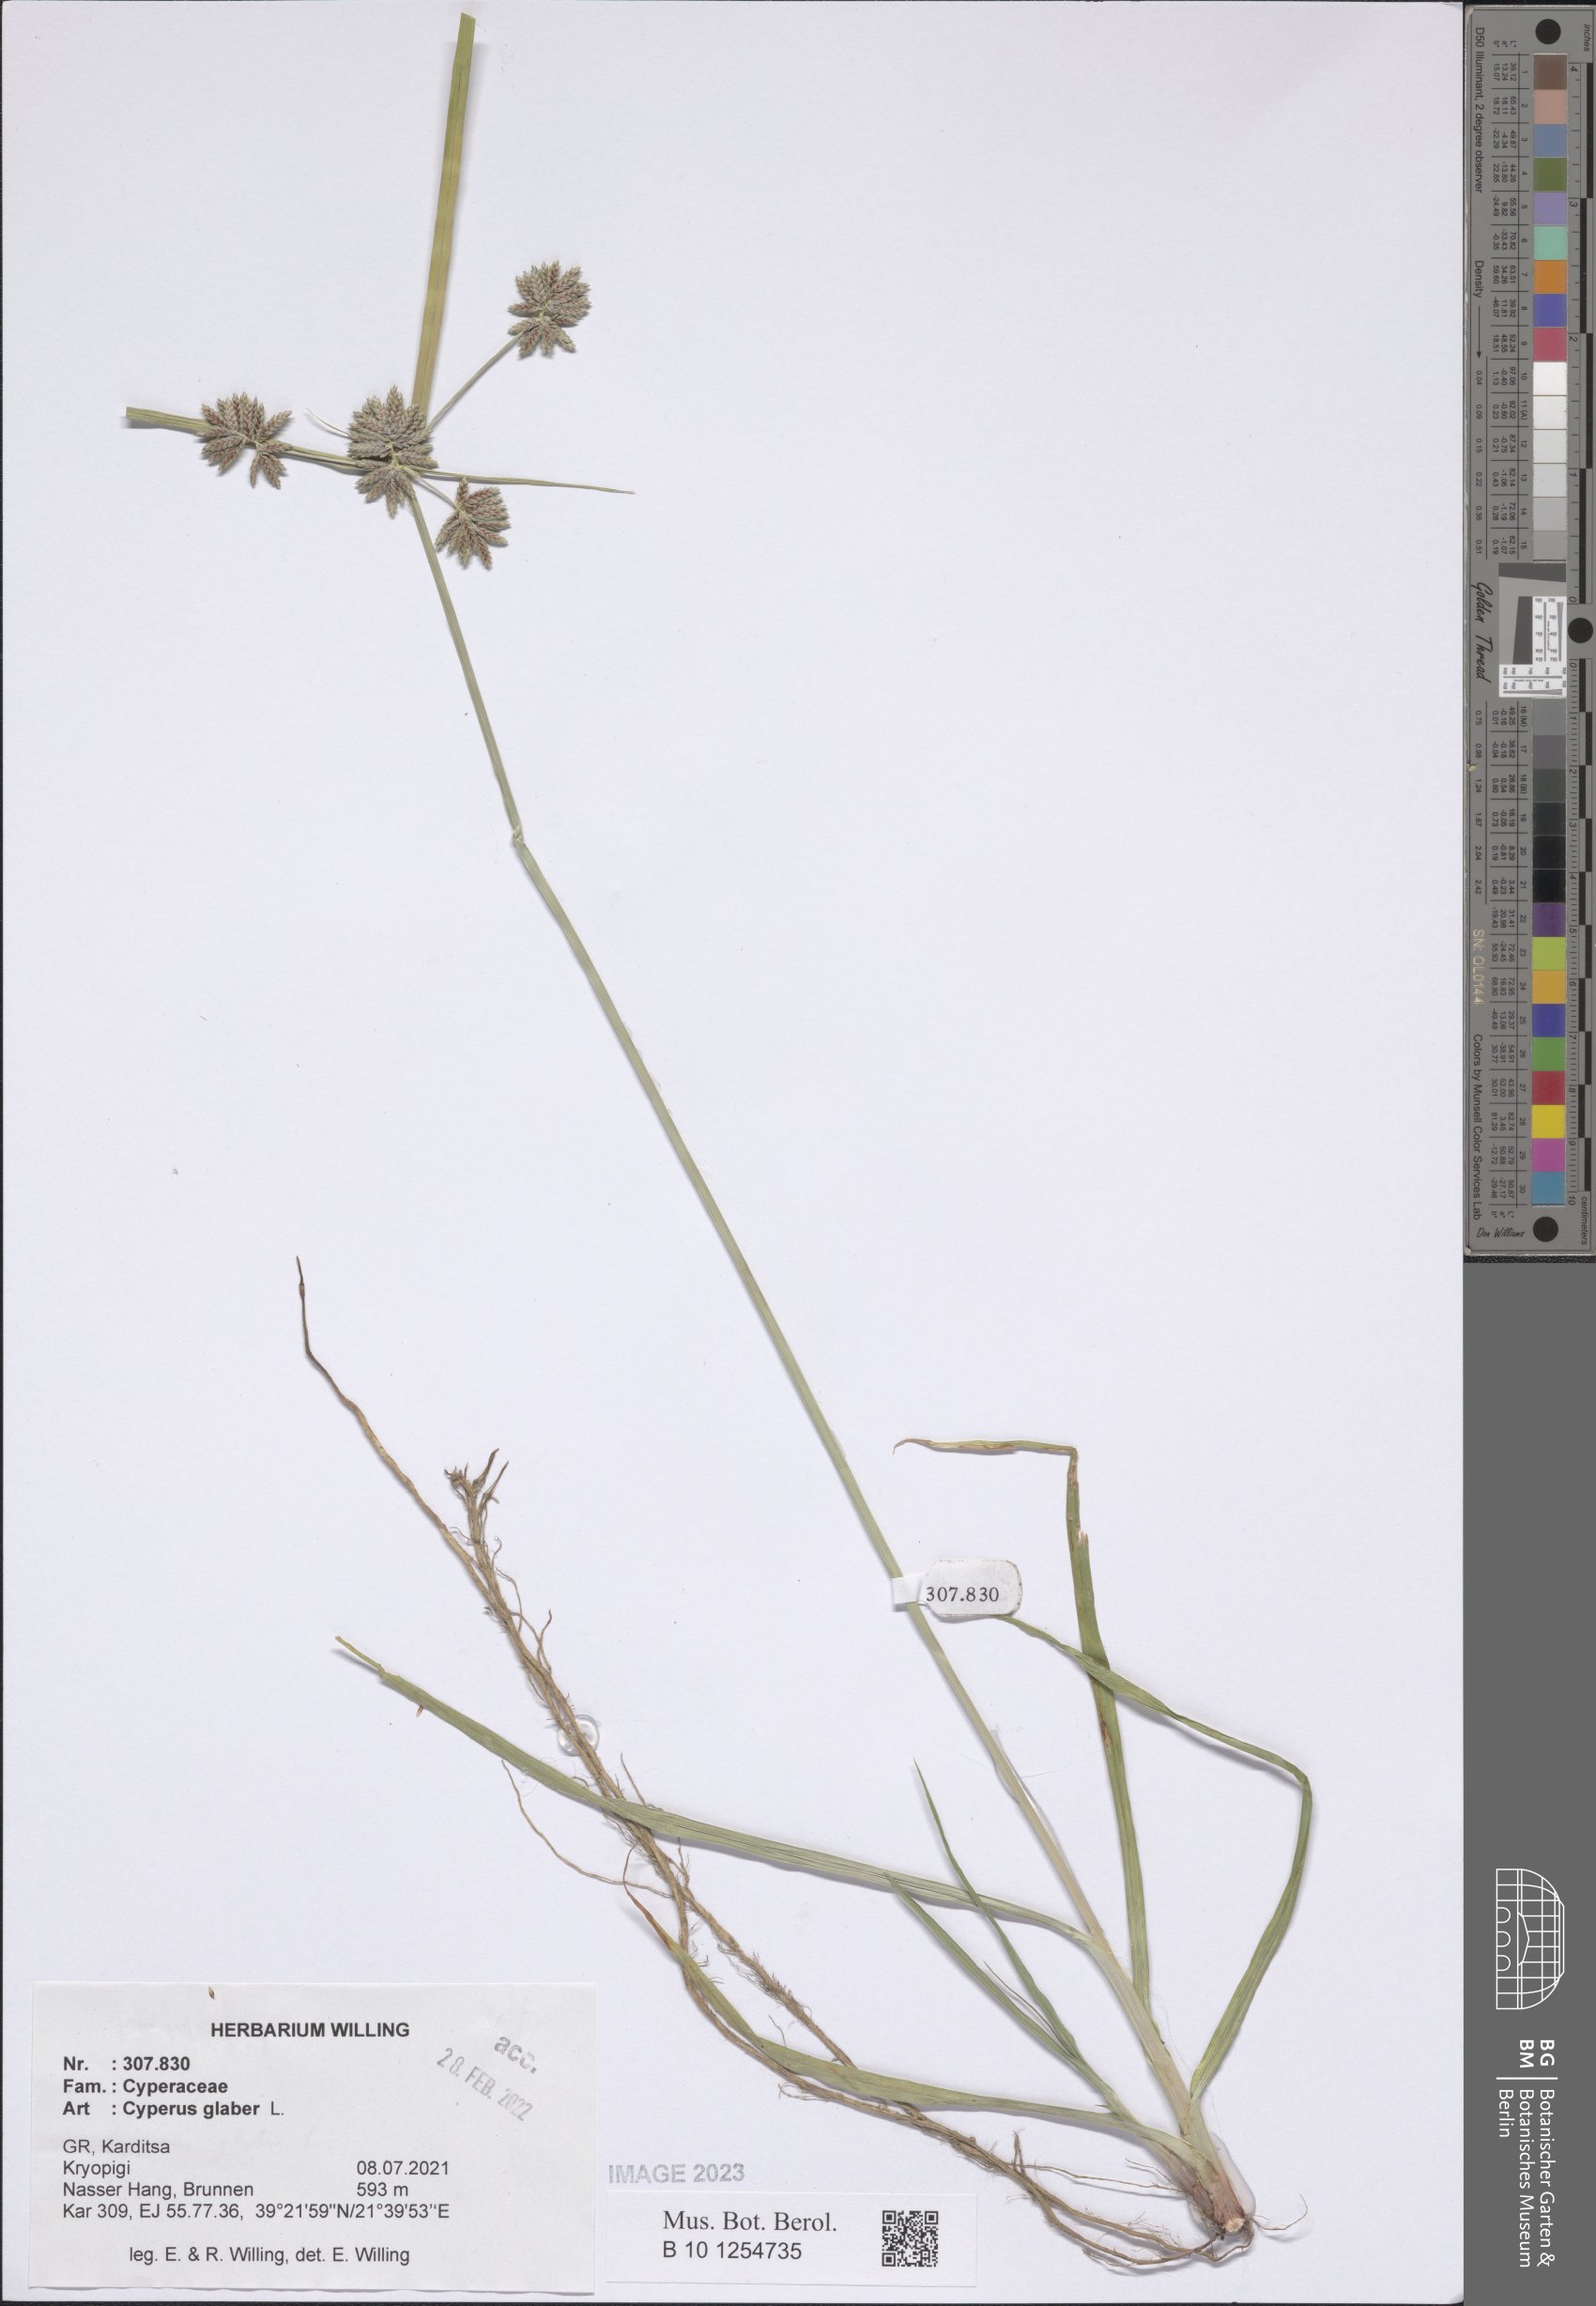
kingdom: Plantae
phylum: Tracheophyta
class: Liliopsida
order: Poales
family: Cyperaceae
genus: Cyperus
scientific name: Cyperus glaber
